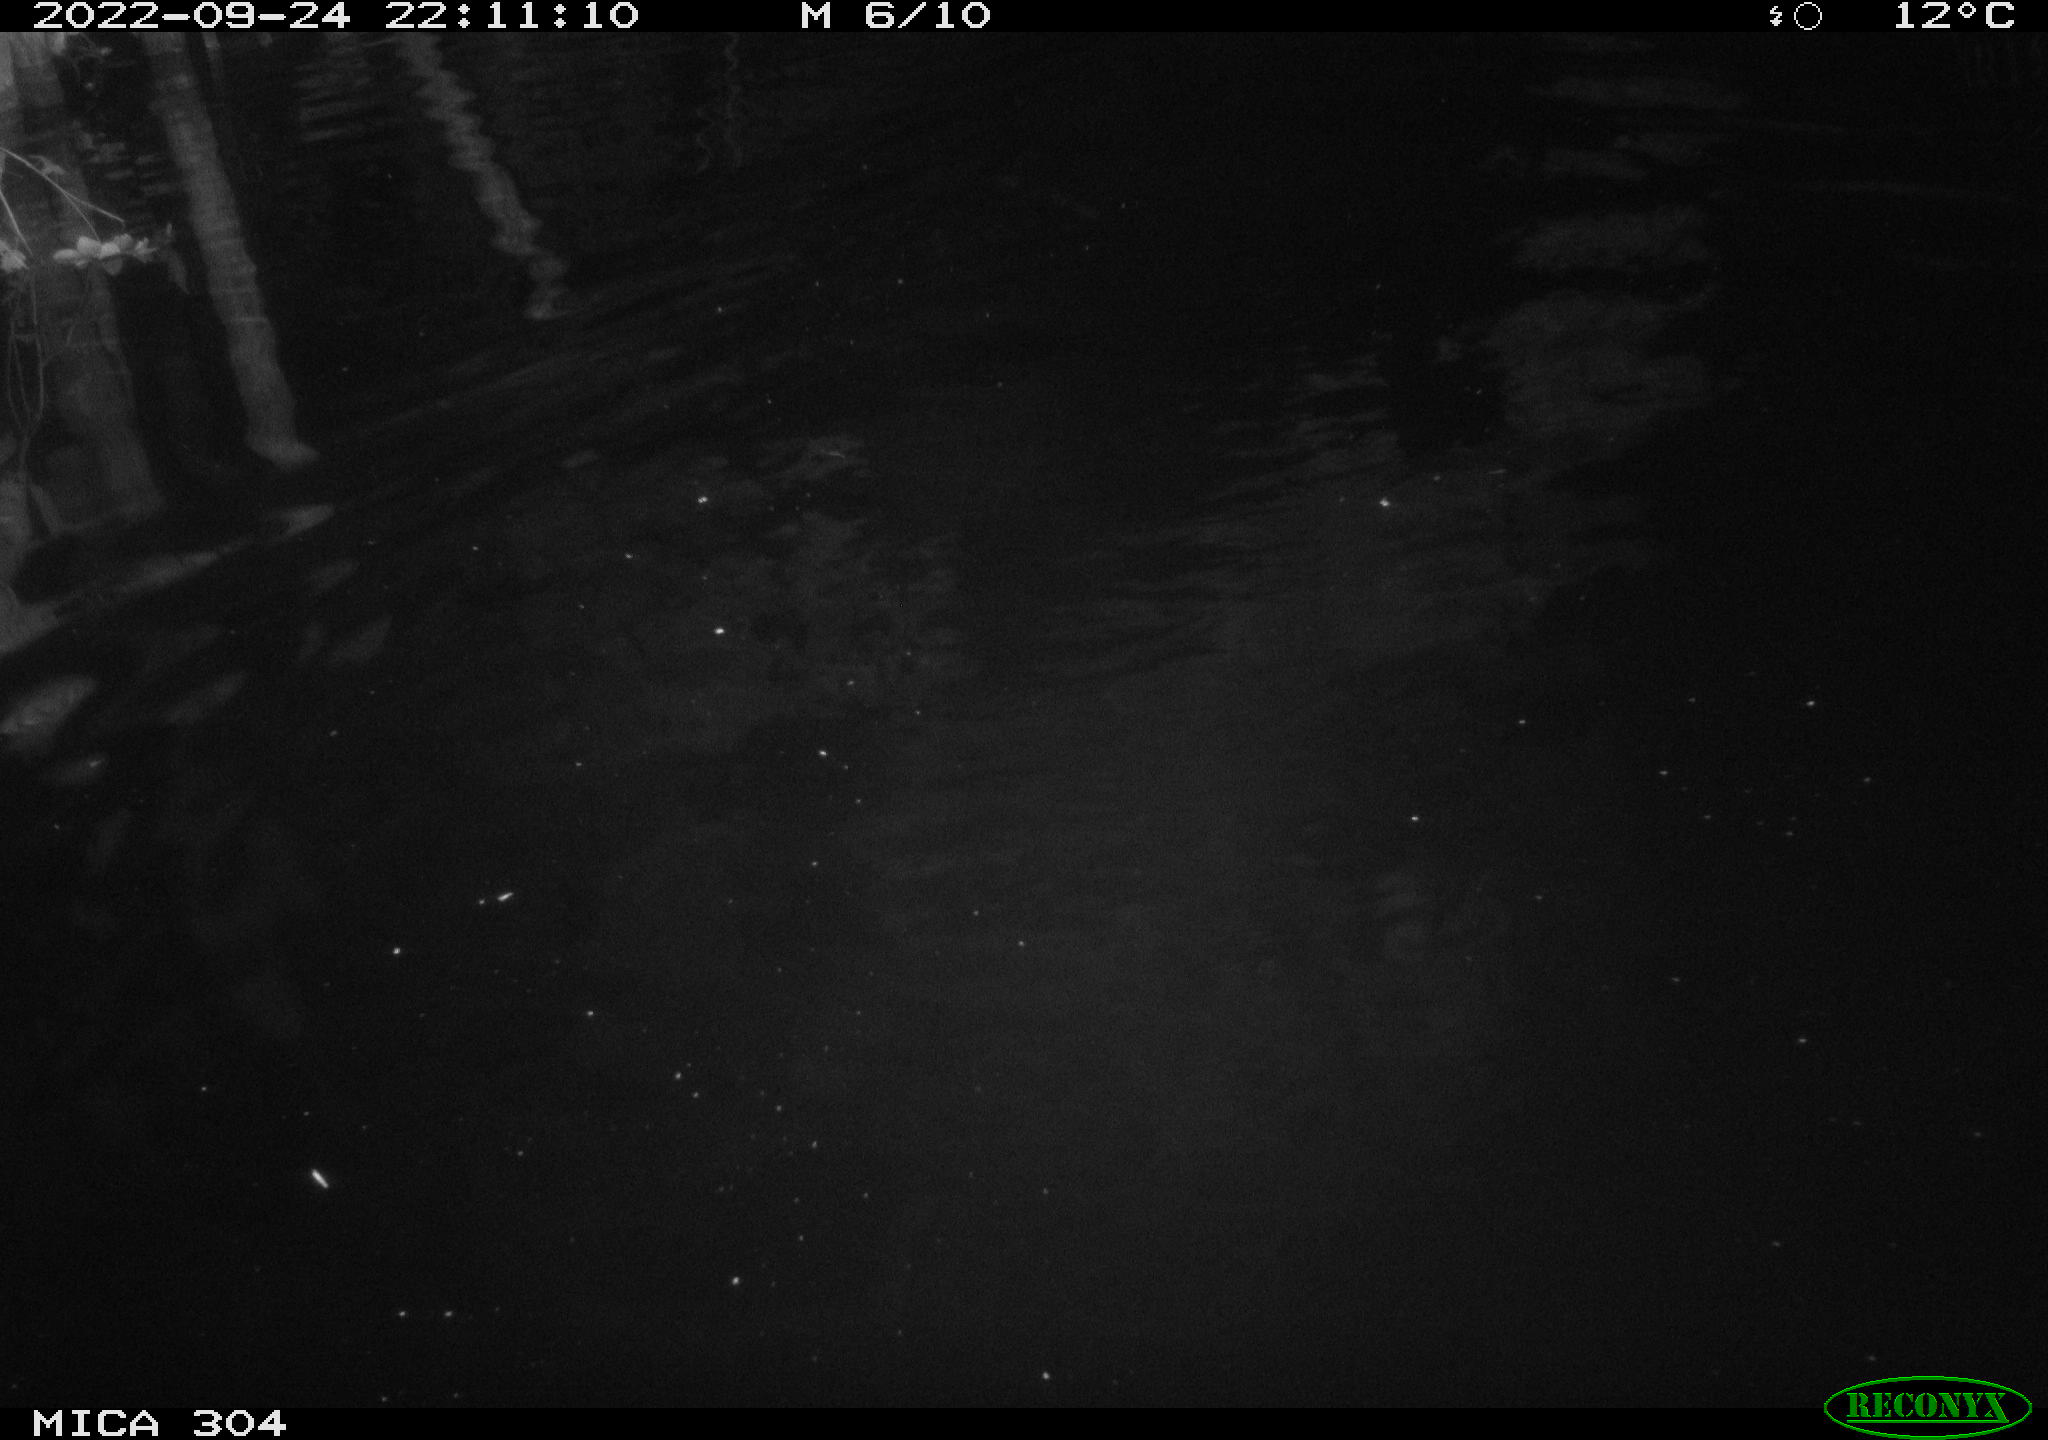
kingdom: Animalia
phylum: Chordata
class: Mammalia
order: Rodentia
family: Cricetidae
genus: Ondatra
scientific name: Ondatra zibethicus
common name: Muskrat
